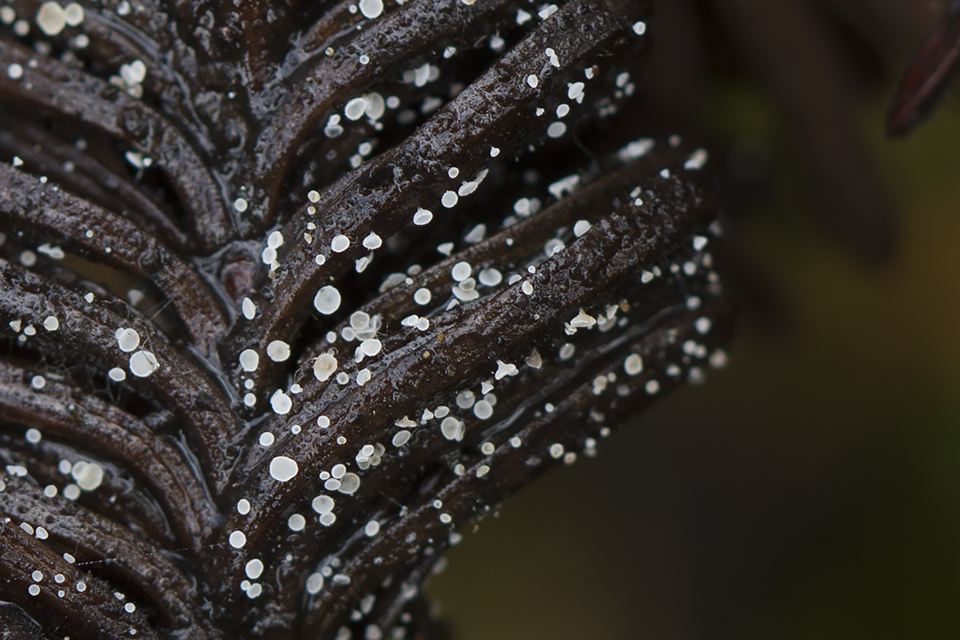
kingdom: Fungi
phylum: Ascomycota
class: Leotiomycetes
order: Helotiales
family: Hyaloscyphaceae
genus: Cistella
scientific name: Cistella acuum
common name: nåle-sirskive
